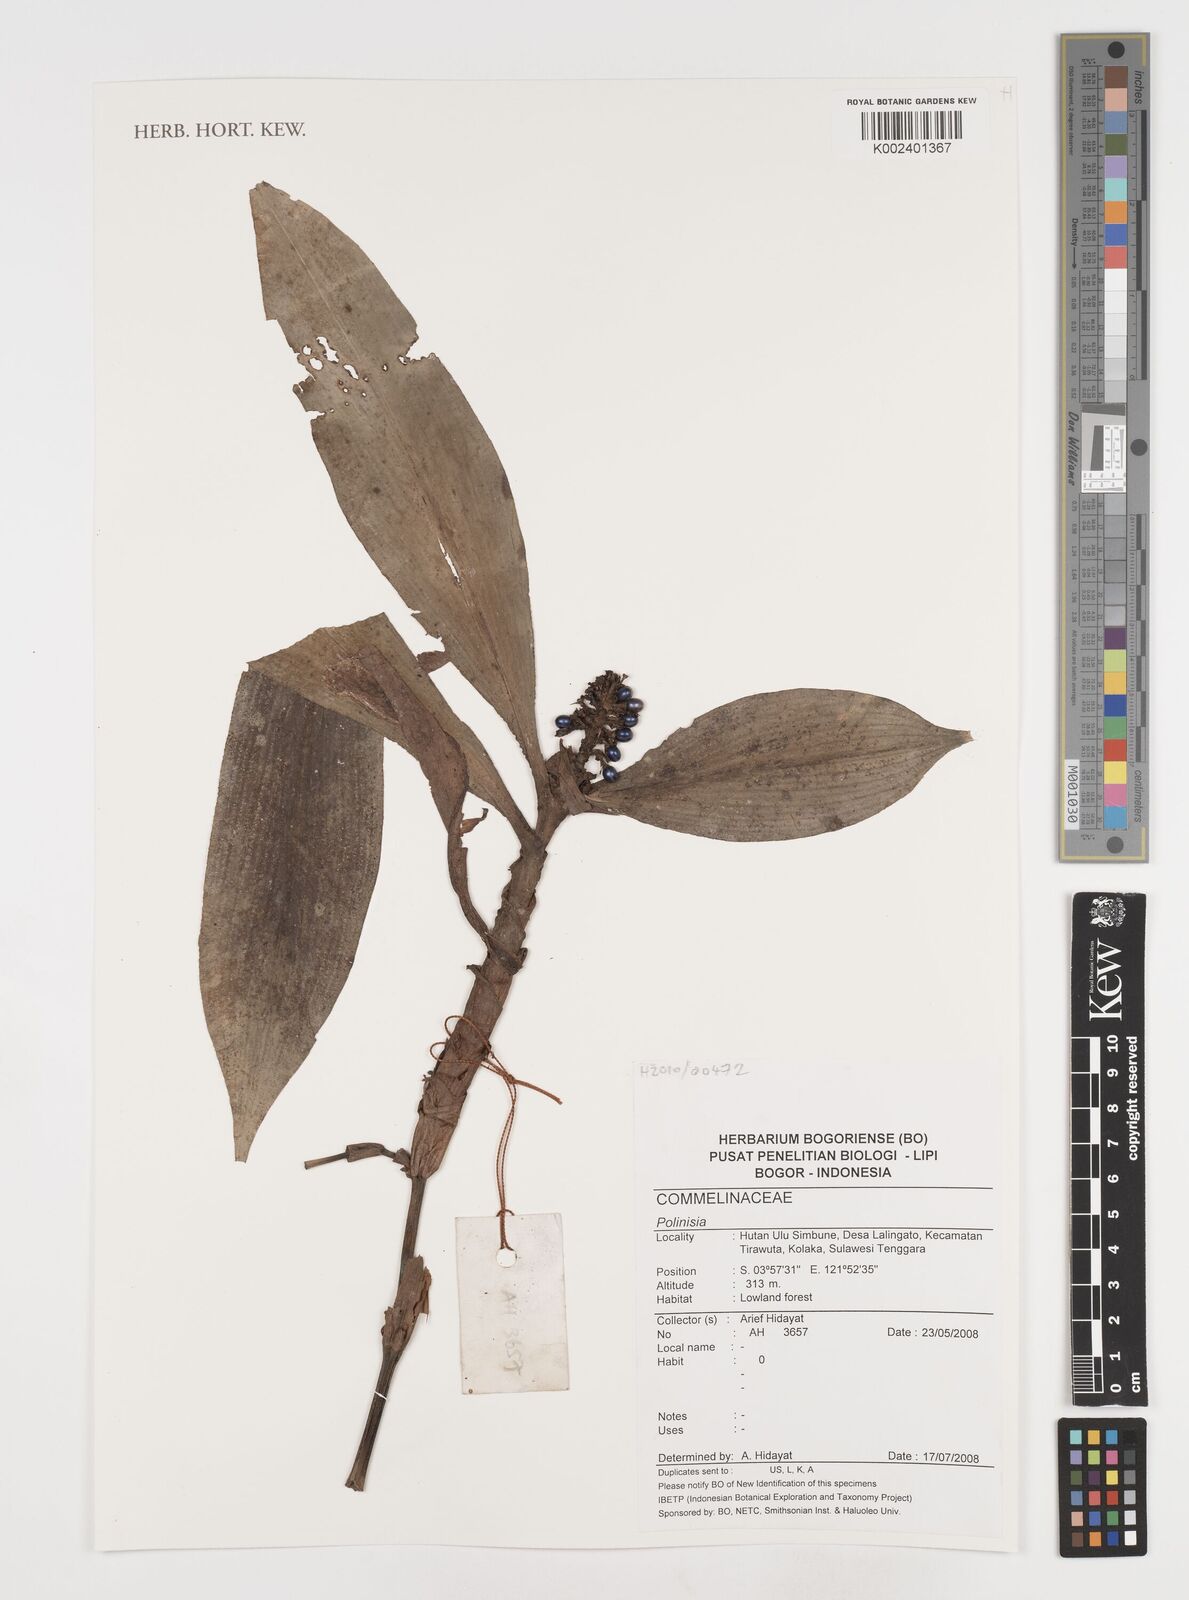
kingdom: Plantae
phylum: Tracheophyta
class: Liliopsida
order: Commelinales
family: Commelinaceae
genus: Pollia
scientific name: Pollia
